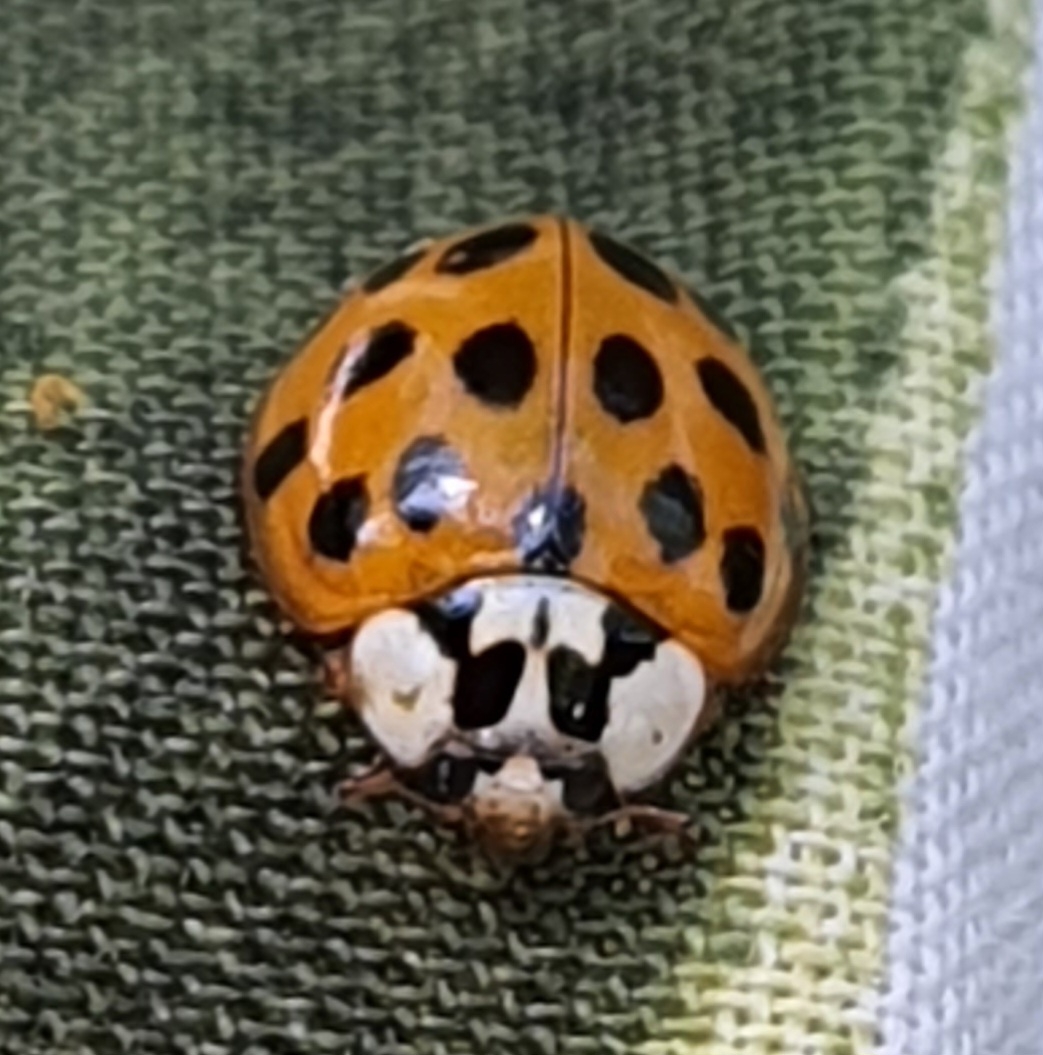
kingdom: Animalia
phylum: Arthropoda
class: Insecta
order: Coleoptera
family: Coccinellidae
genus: Harmonia
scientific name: Harmonia axyridis
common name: Harlekinmariehøne
